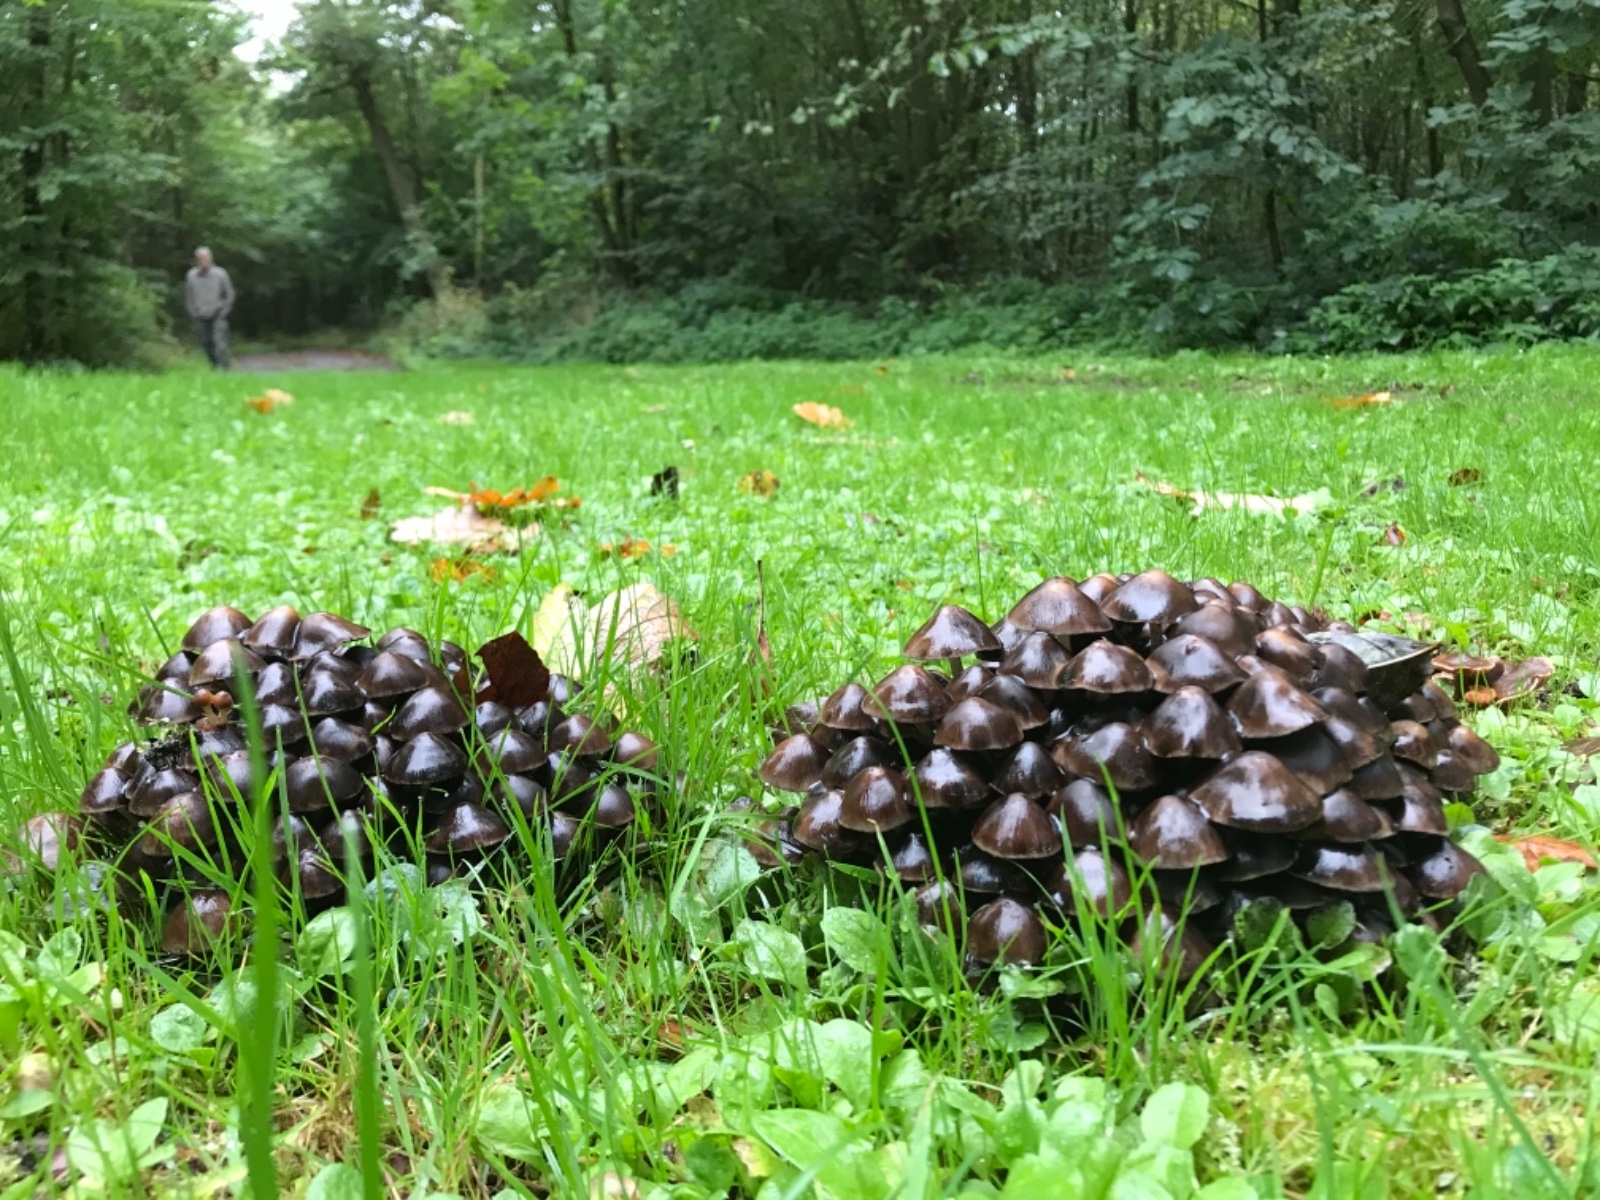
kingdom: Fungi
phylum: Basidiomycota
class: Agaricomycetes
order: Agaricales
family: Psathyrellaceae
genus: Britzelmayria
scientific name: Britzelmayria multipedata
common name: knippe-mørkhat
